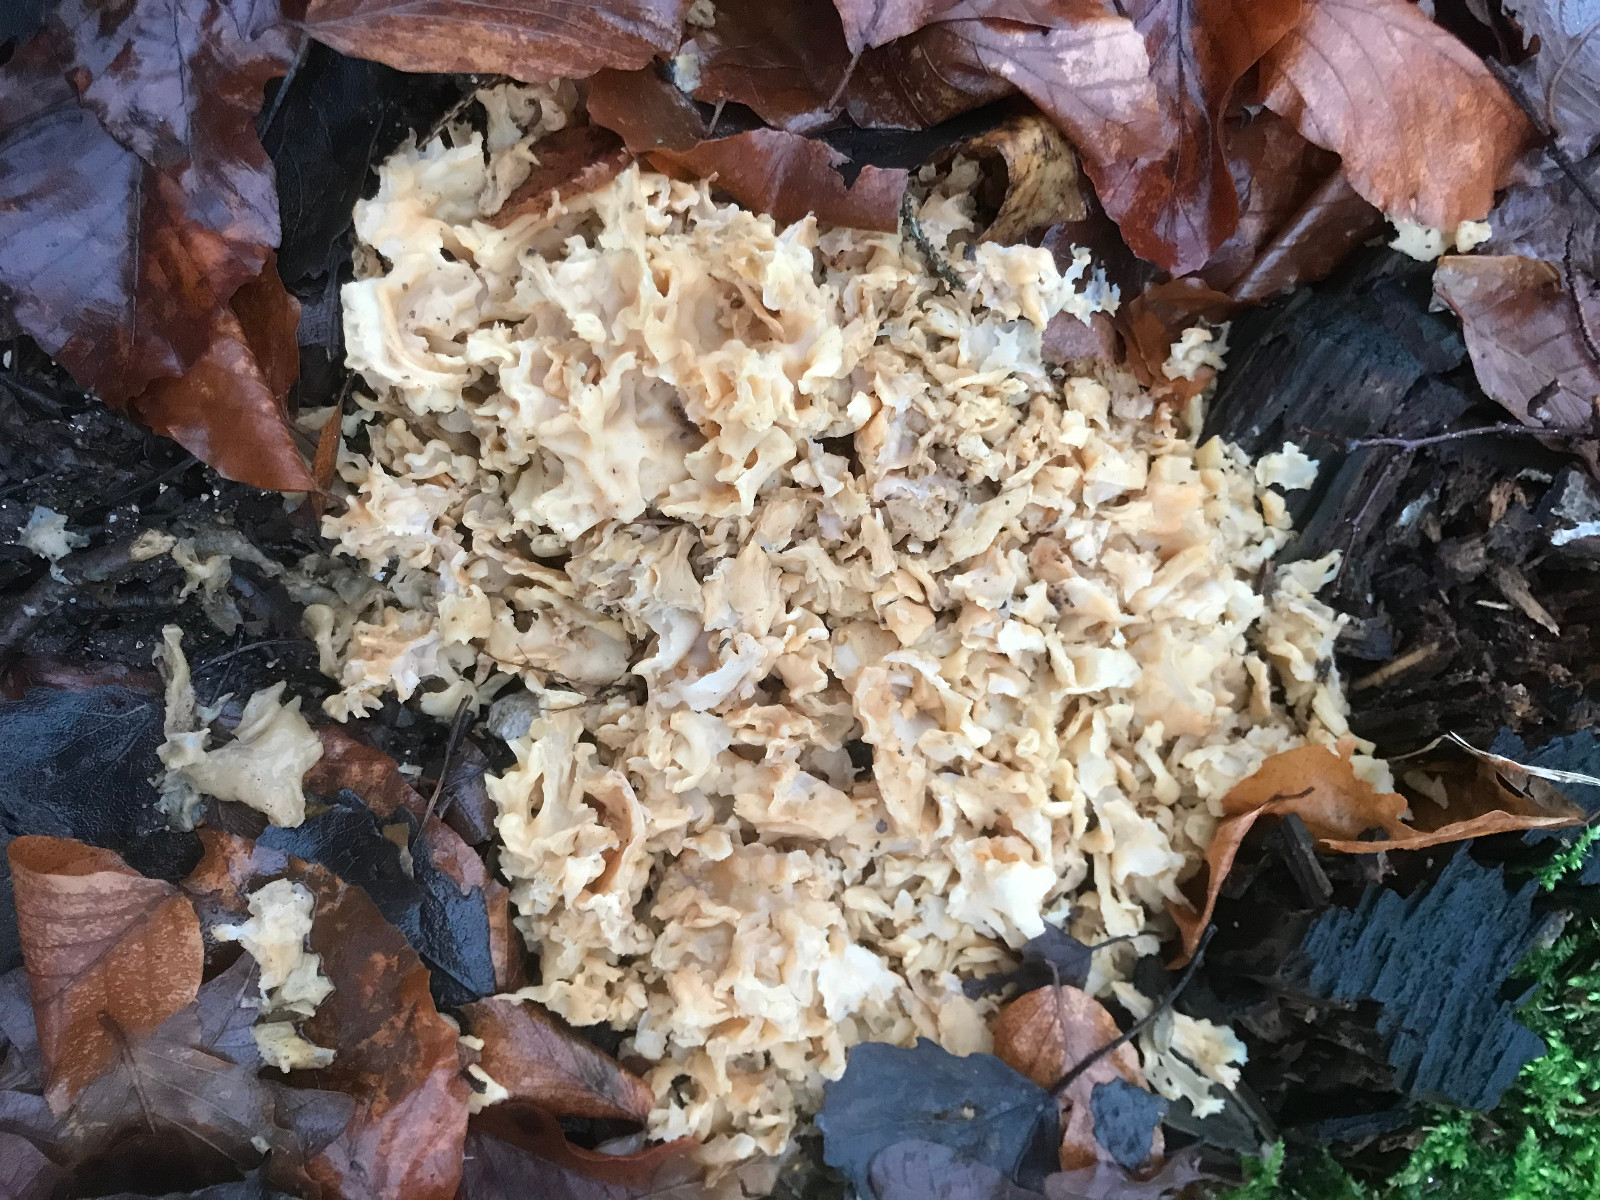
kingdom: Fungi
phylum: Basidiomycota
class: Agaricomycetes
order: Polyporales
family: Sparassidaceae
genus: Sparassis
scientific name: Sparassis crispa
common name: kruset blomkålssvamp
